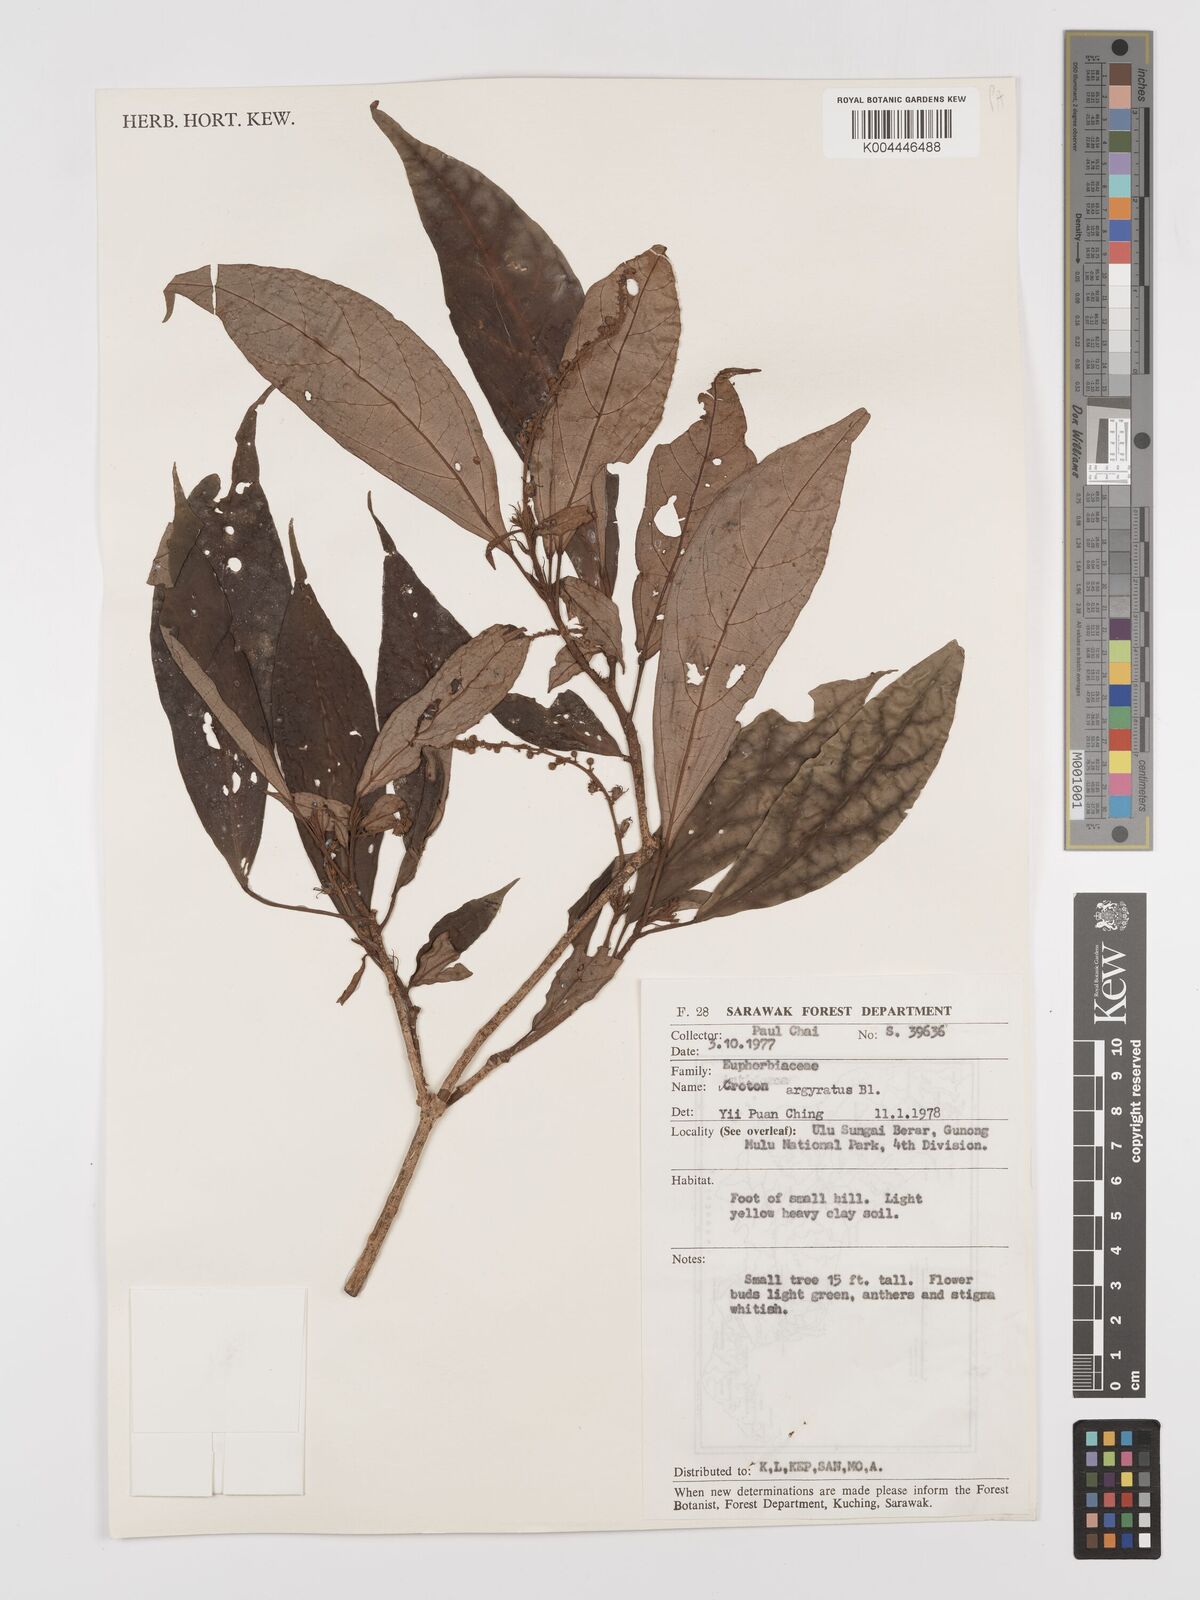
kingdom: Plantae
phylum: Tracheophyta
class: Magnoliopsida
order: Malpighiales
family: Euphorbiaceae
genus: Croton
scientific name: Croton argyratus
